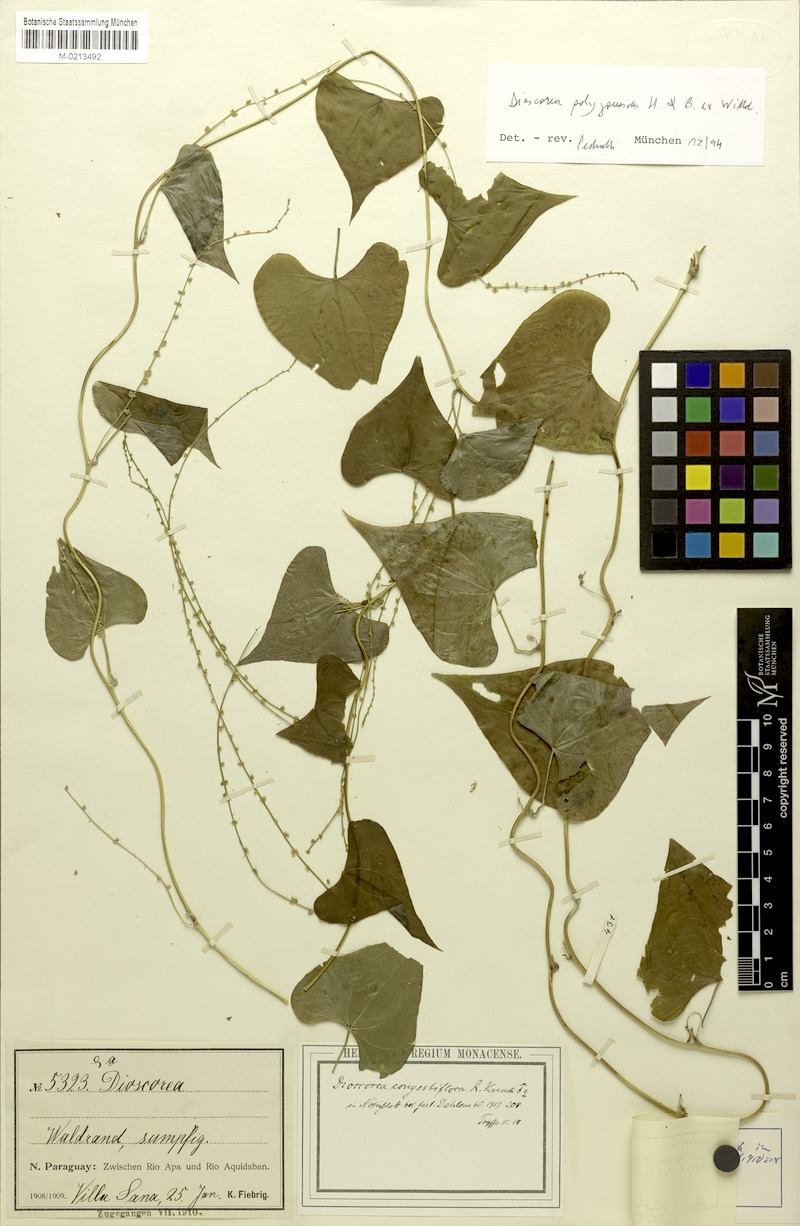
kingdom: Plantae
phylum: Tracheophyta
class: Liliopsida
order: Dioscoreales
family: Dioscoreaceae
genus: Dioscorea
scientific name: Dioscorea ceratandra
